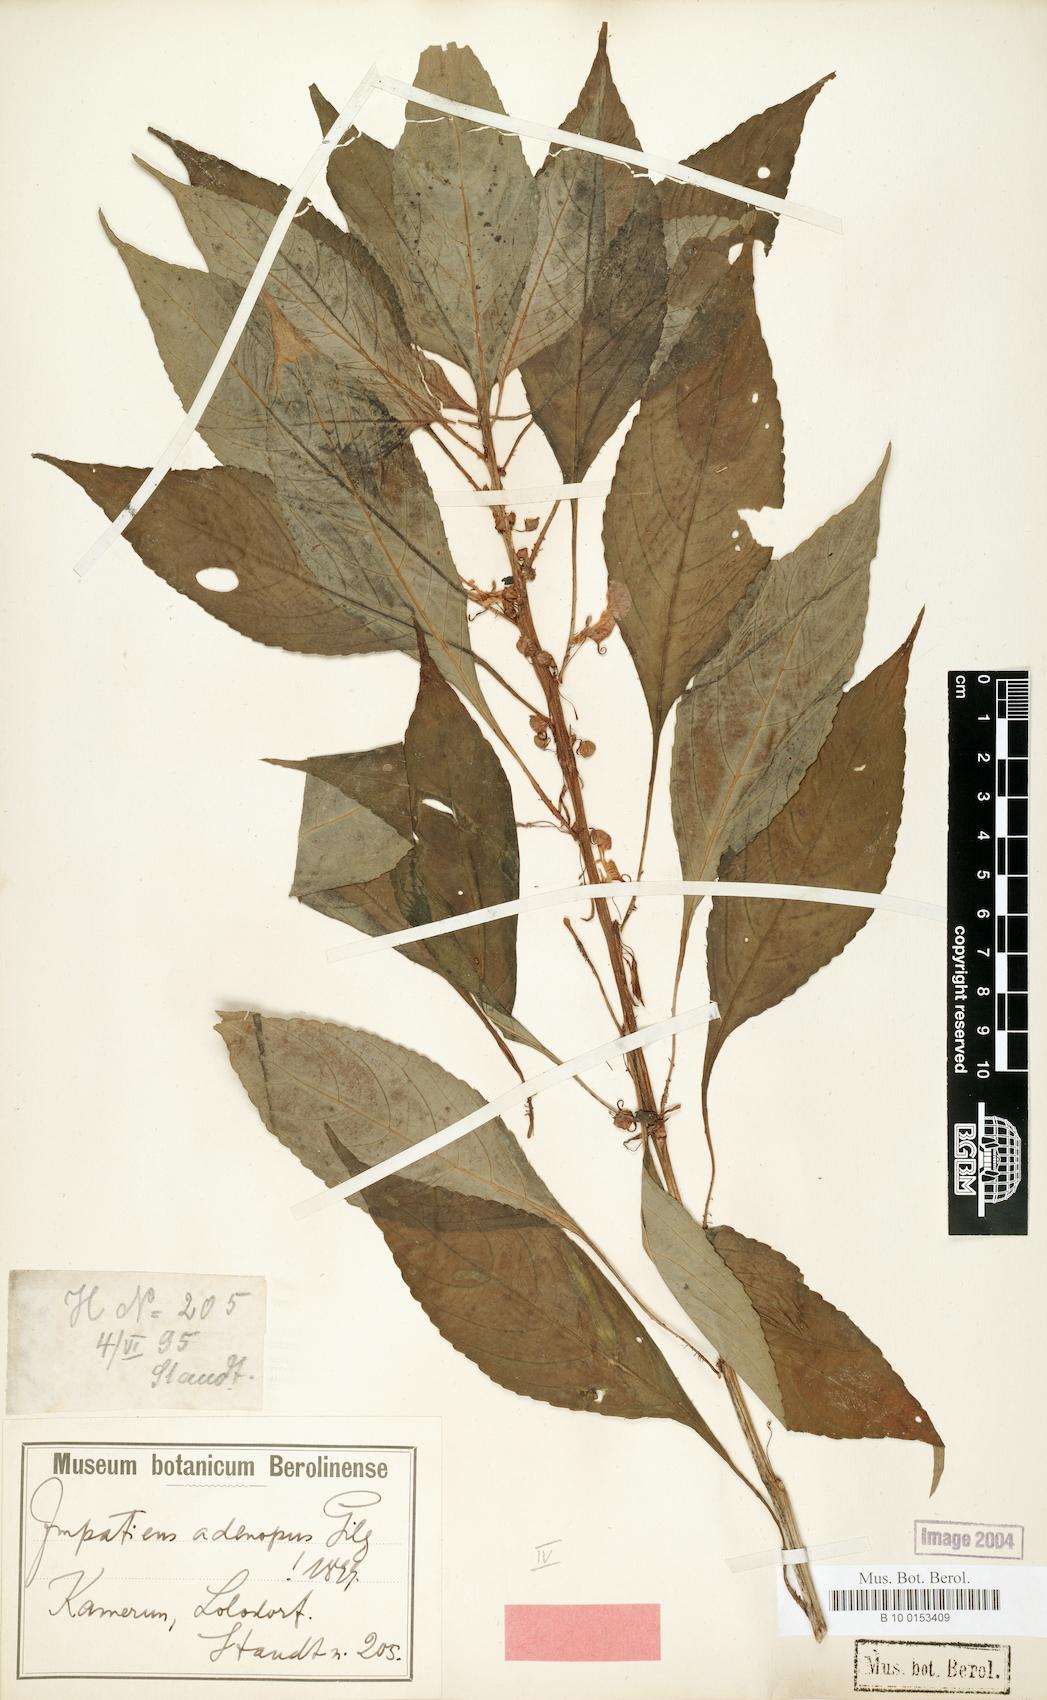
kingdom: Plantae
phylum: Tracheophyta
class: Magnoliopsida
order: Ericales
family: Balsaminaceae
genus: Impatiens
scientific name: Impatiens mannii
